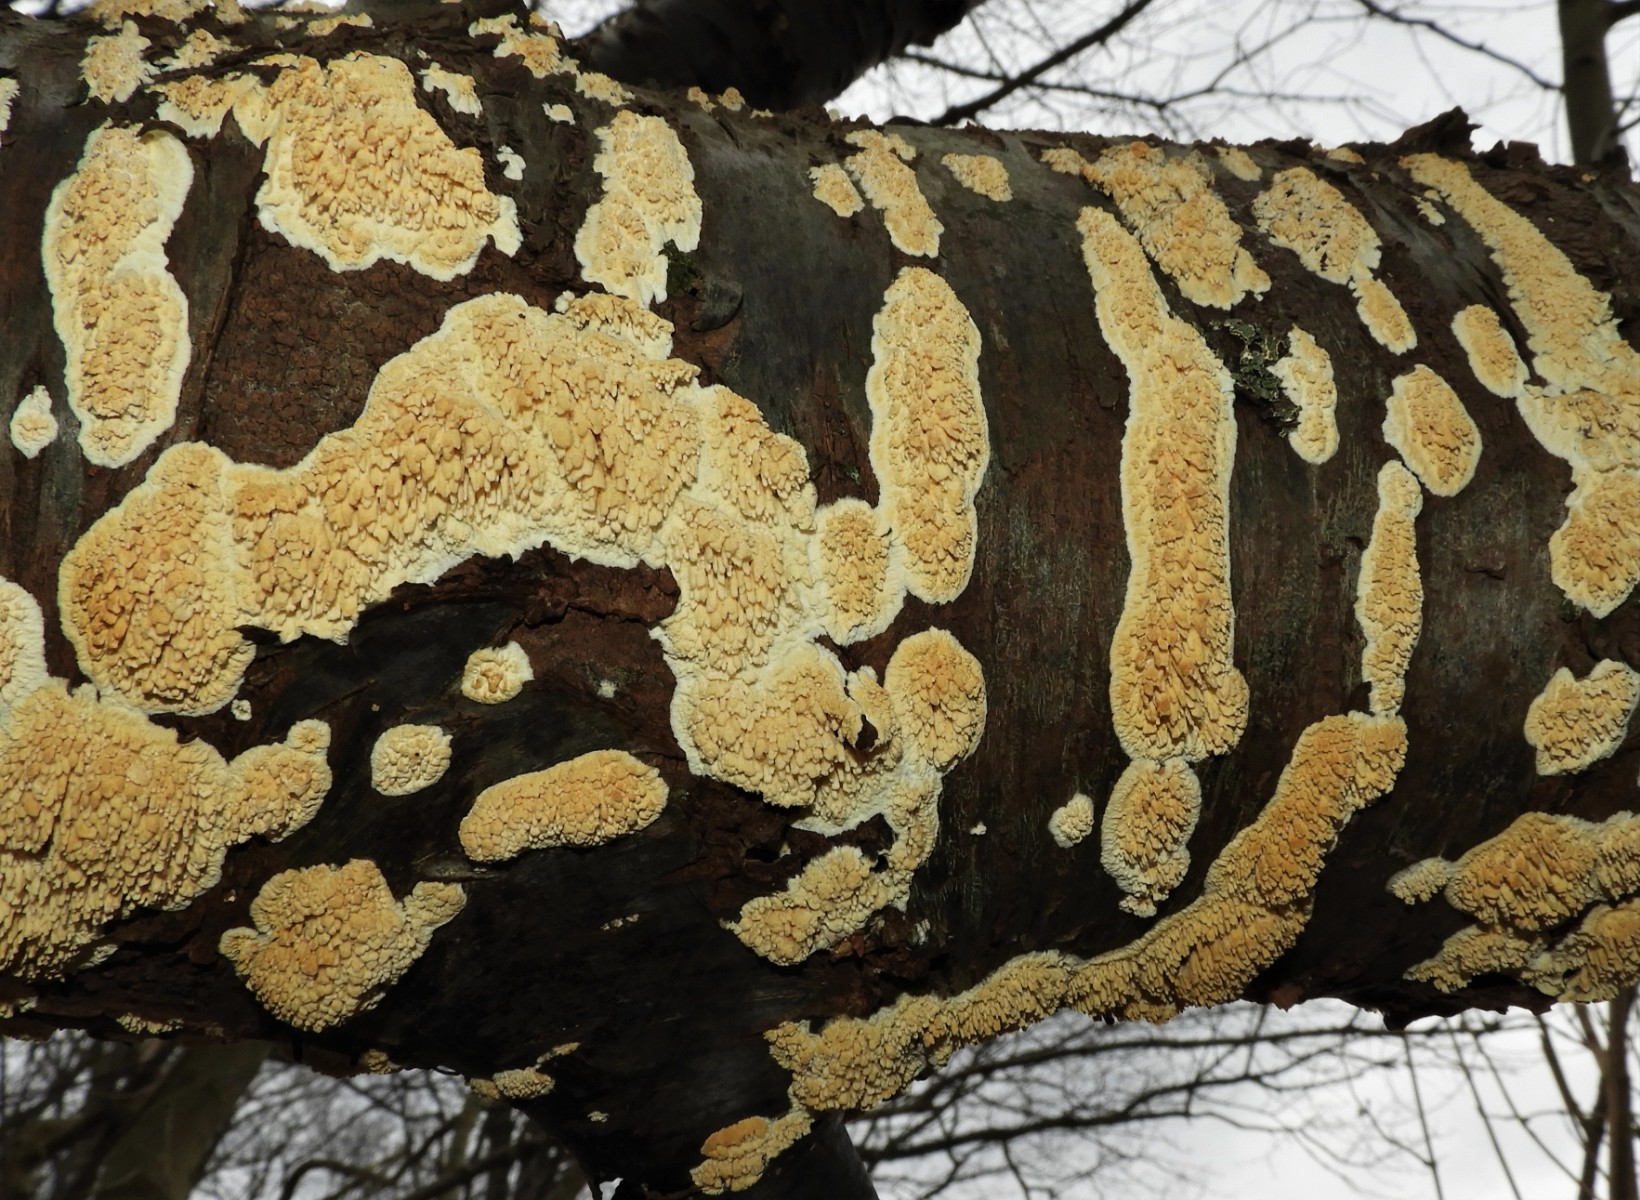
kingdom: Fungi
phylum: Basidiomycota
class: Agaricomycetes
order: Hymenochaetales
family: Schizoporaceae
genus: Xylodon
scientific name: Xylodon radula
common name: grovtandet kalkskind
